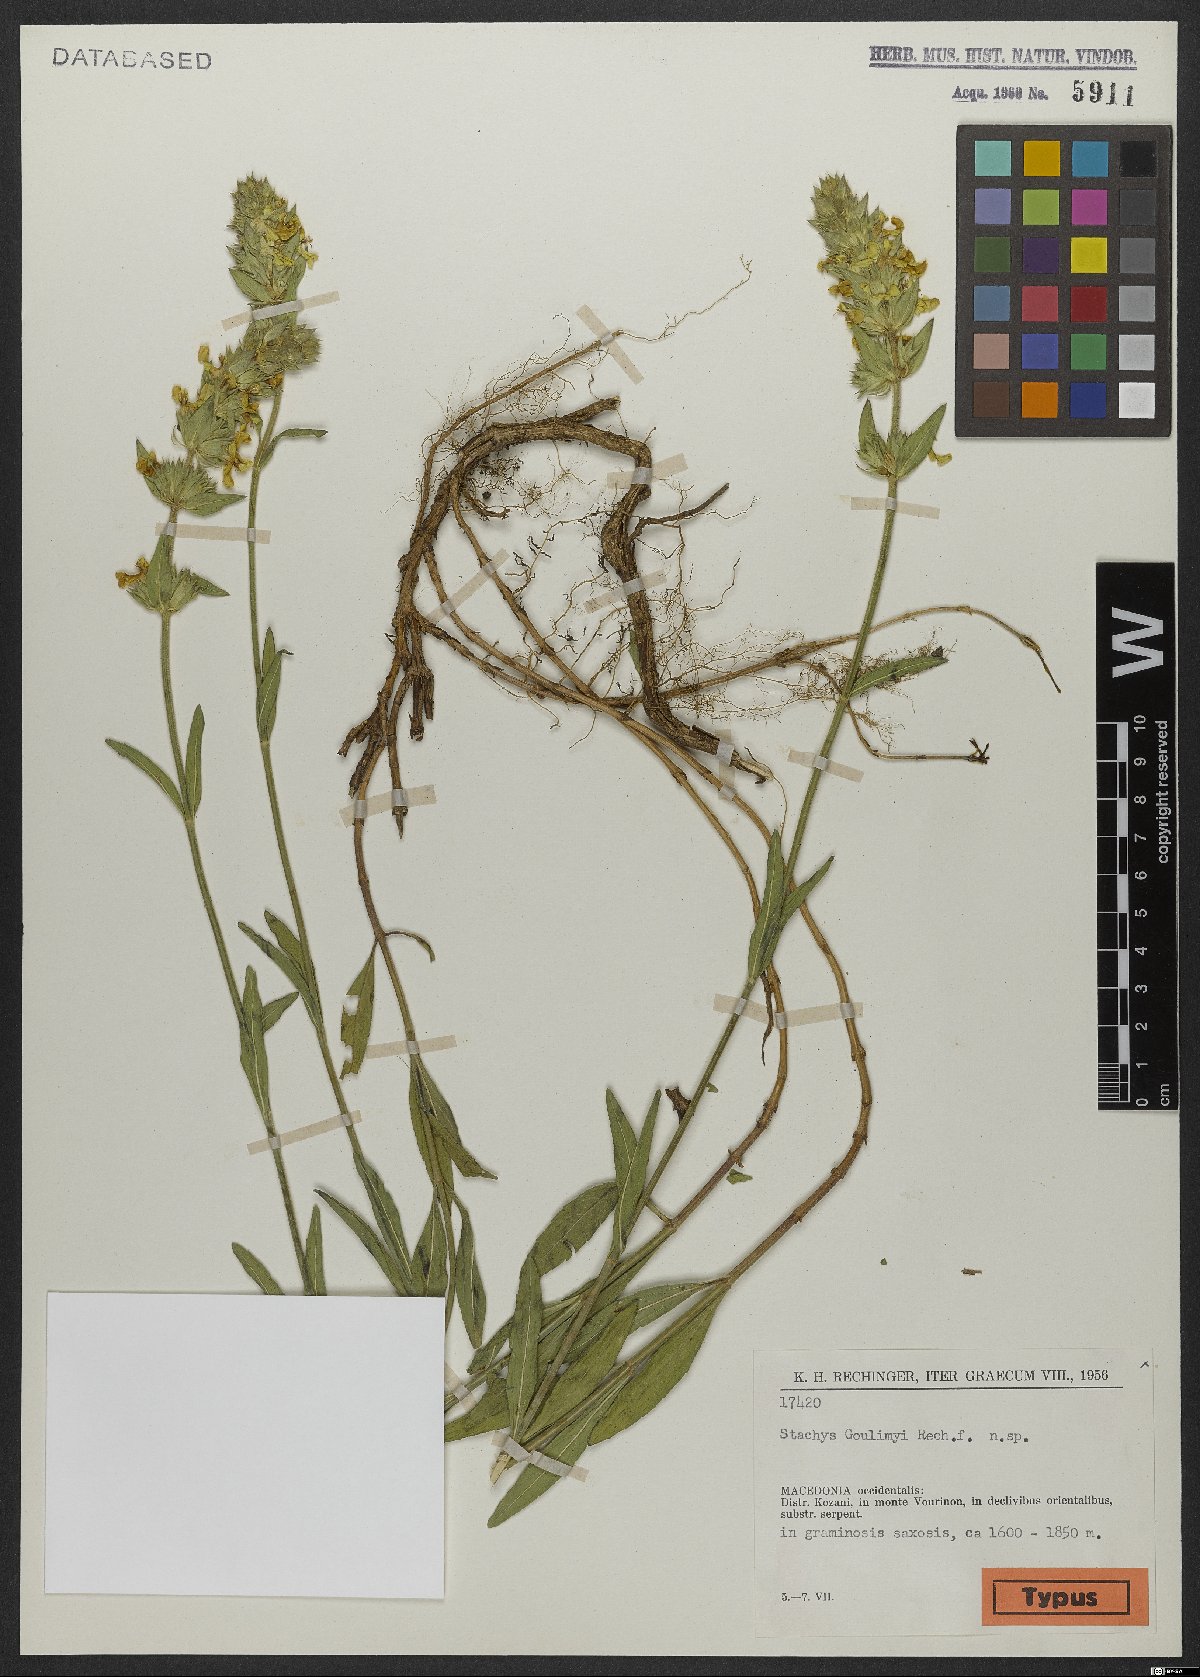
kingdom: Plantae
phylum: Tracheophyta
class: Magnoliopsida
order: Lamiales
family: Lamiaceae
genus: Stachys
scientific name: Stachys goulimyi
